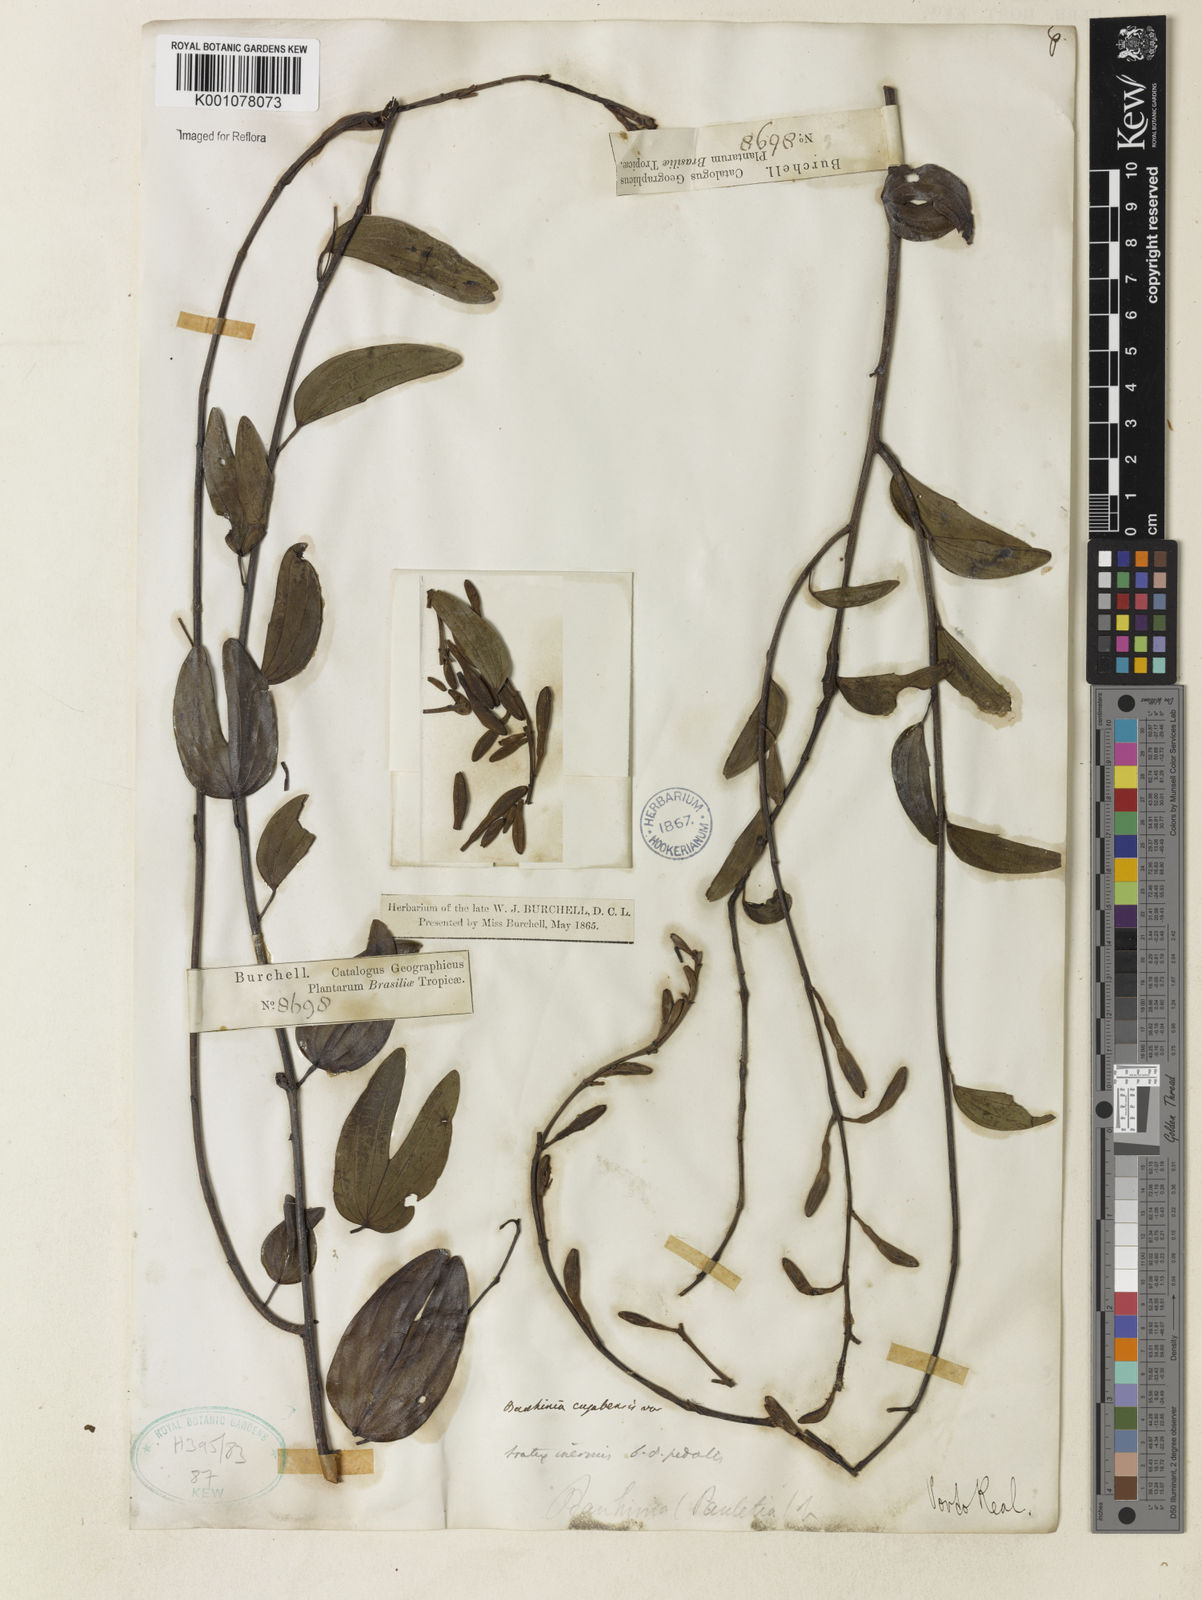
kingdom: Plantae
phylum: Tracheophyta
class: Magnoliopsida
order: Fabales
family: Fabaceae
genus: Bauhinia
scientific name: Bauhinia ungulata
